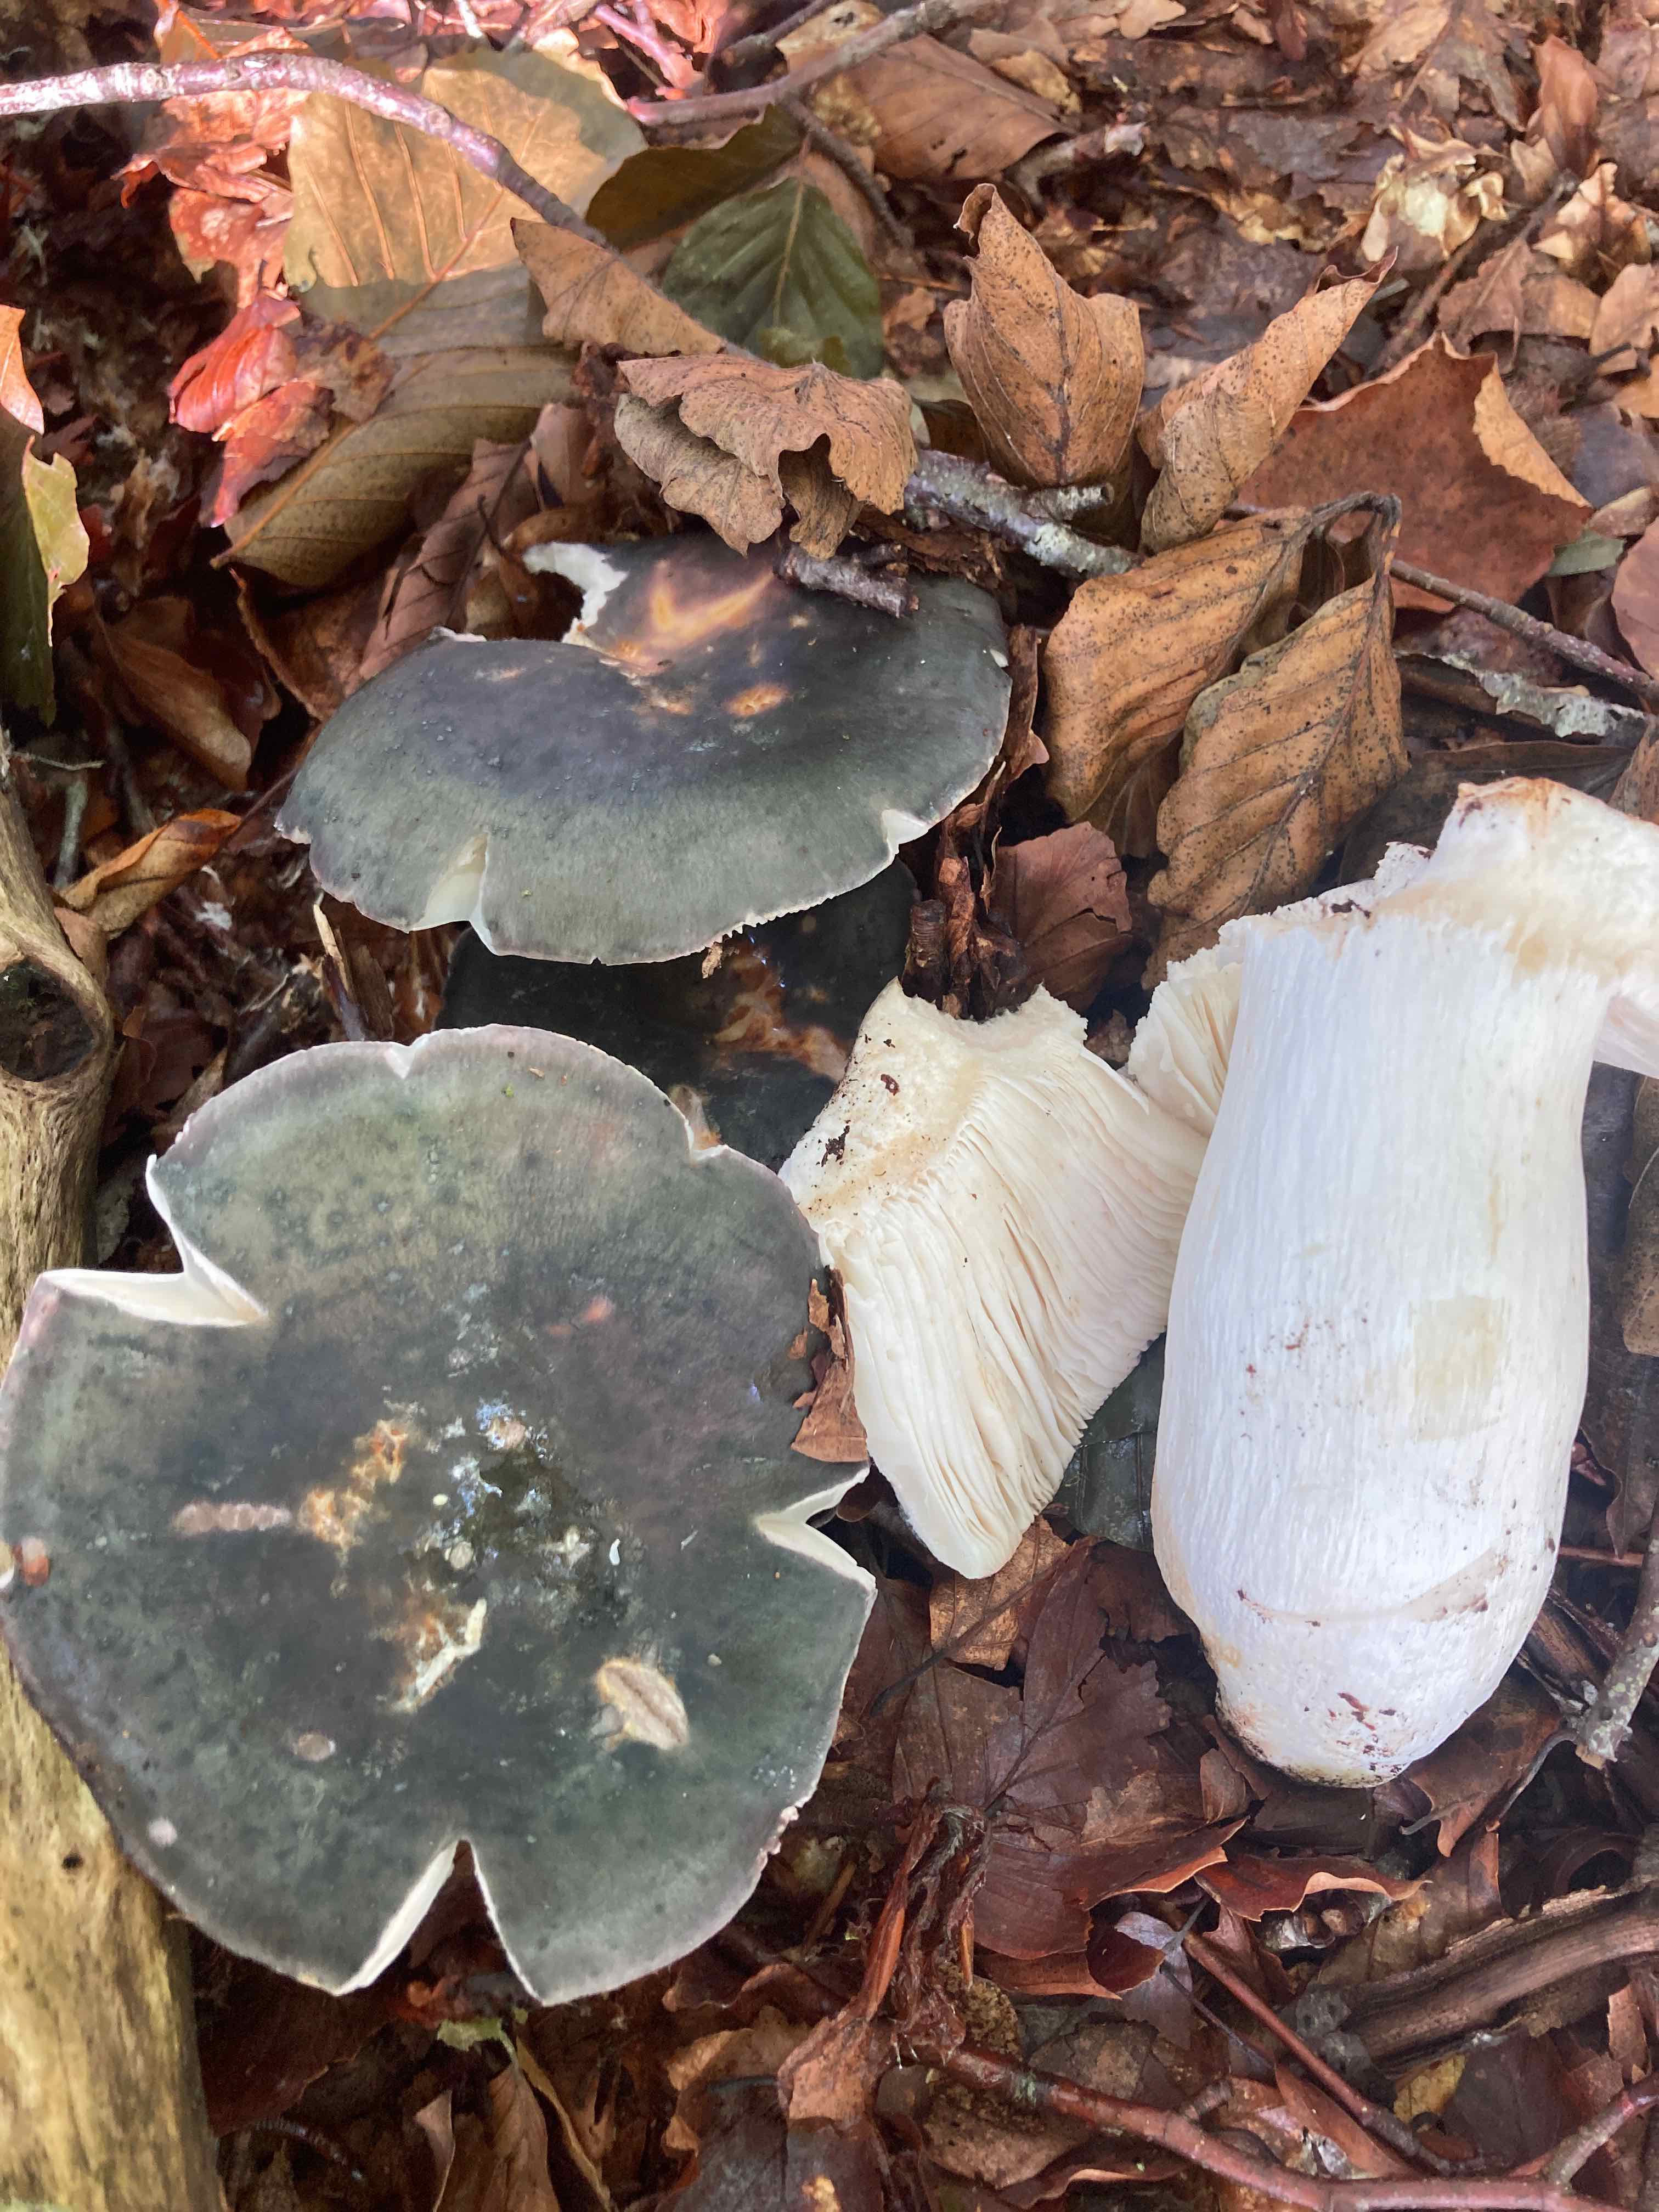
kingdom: Fungi
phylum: Basidiomycota
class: Agaricomycetes
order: Russulales
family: Russulaceae
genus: Russula
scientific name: Russula cyanoxantha
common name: broget skørhat
